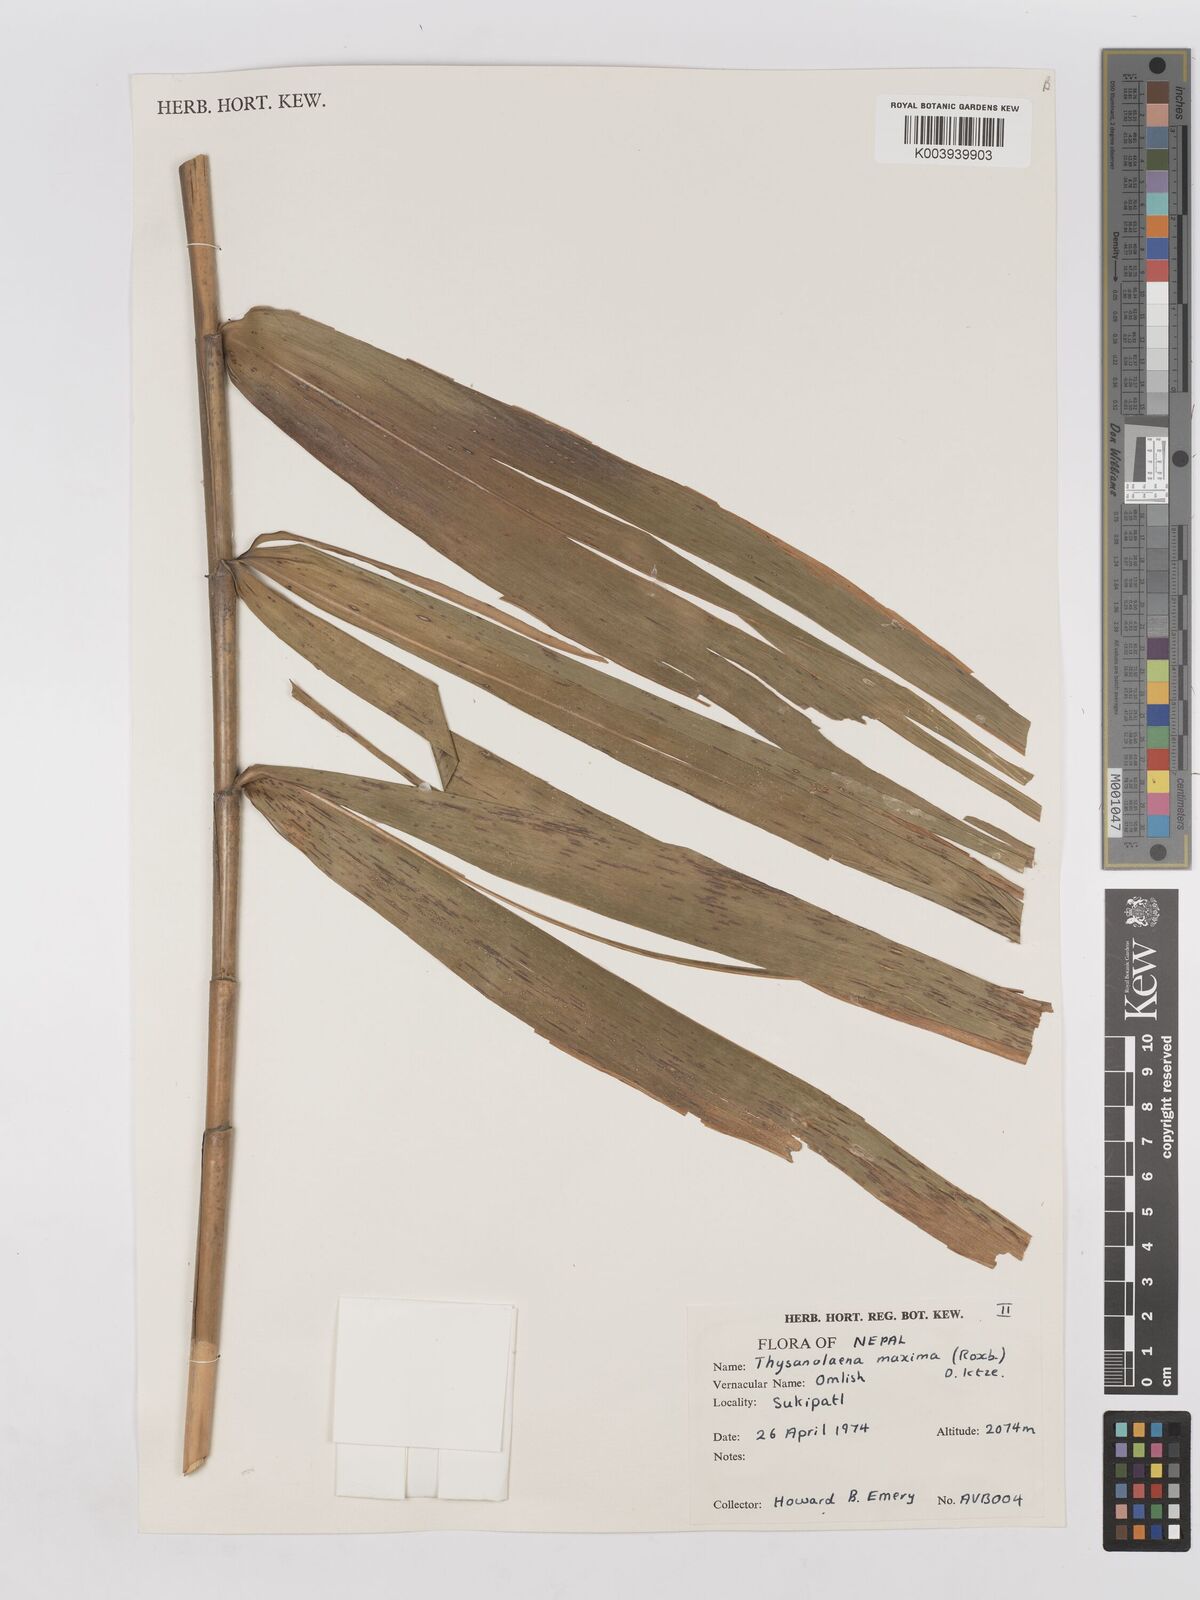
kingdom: Plantae
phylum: Tracheophyta
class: Liliopsida
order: Poales
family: Poaceae
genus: Thysanolaena
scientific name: Thysanolaena latifolia
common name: Tiger grass
